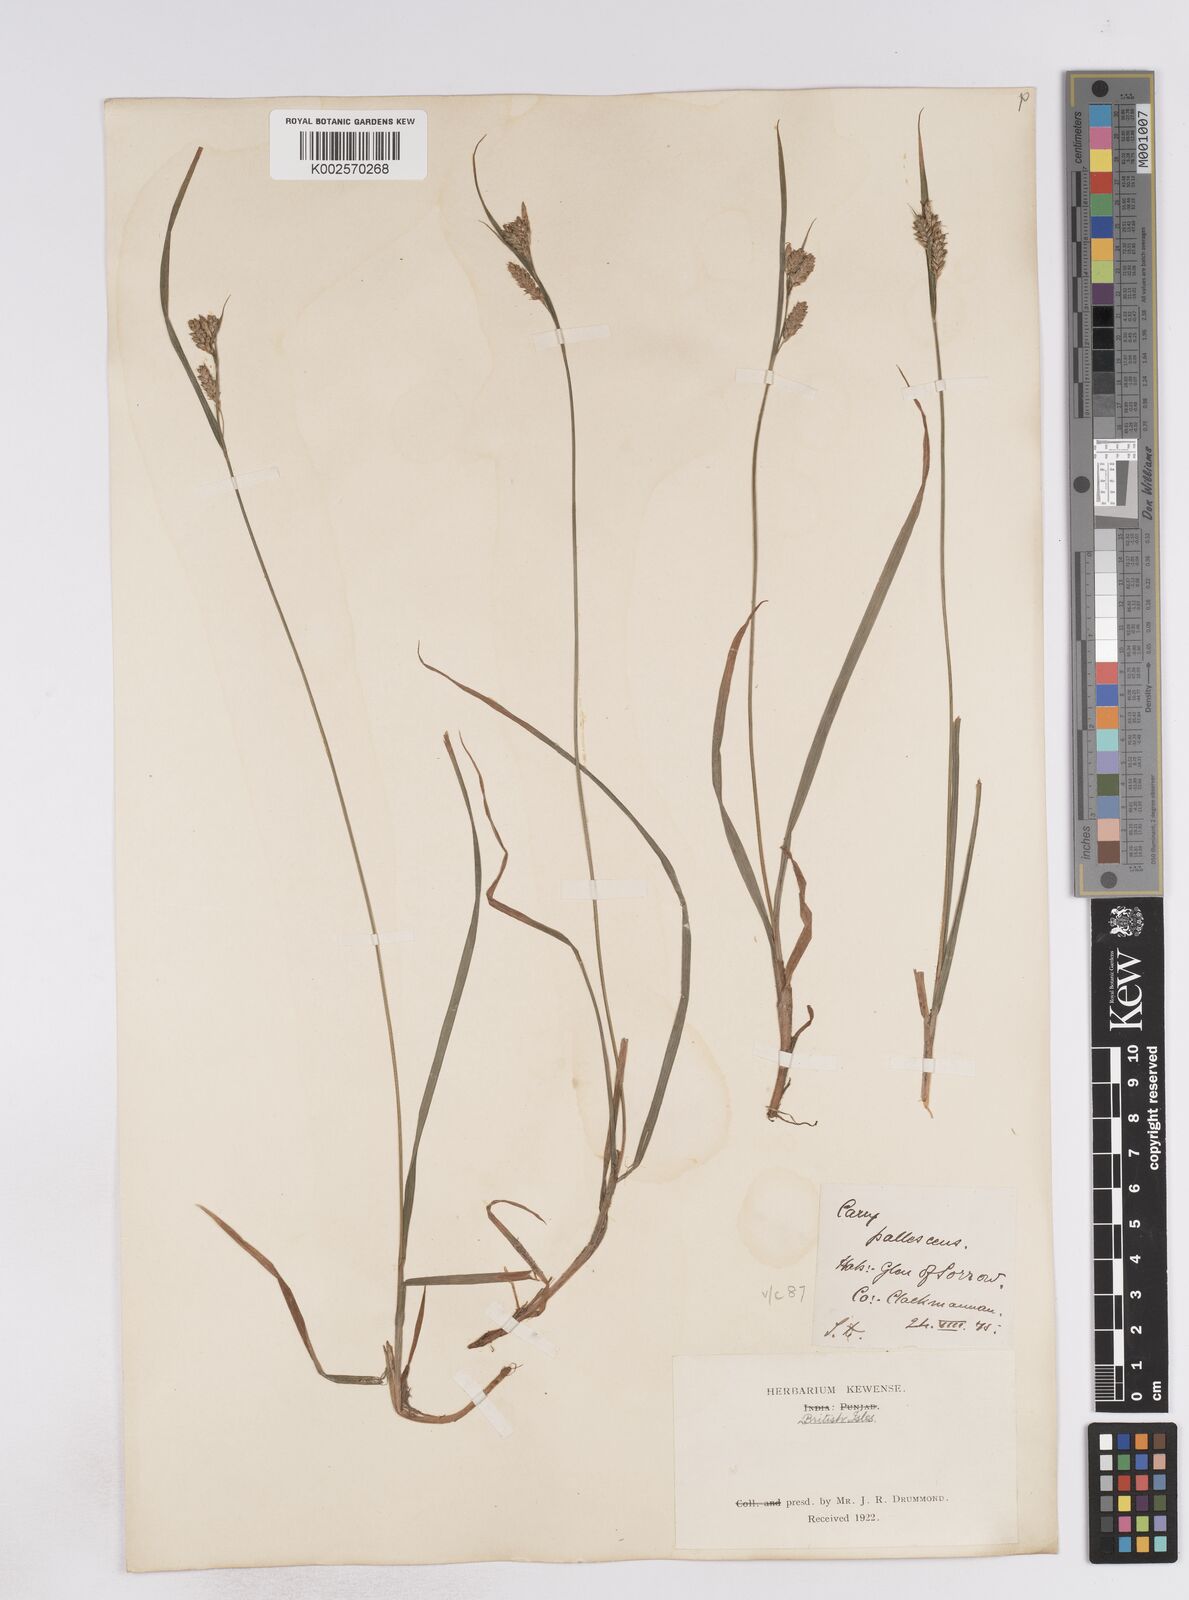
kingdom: Plantae
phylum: Tracheophyta
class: Liliopsida
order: Poales
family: Cyperaceae
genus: Carex
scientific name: Carex pallescens
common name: Pale sedge
